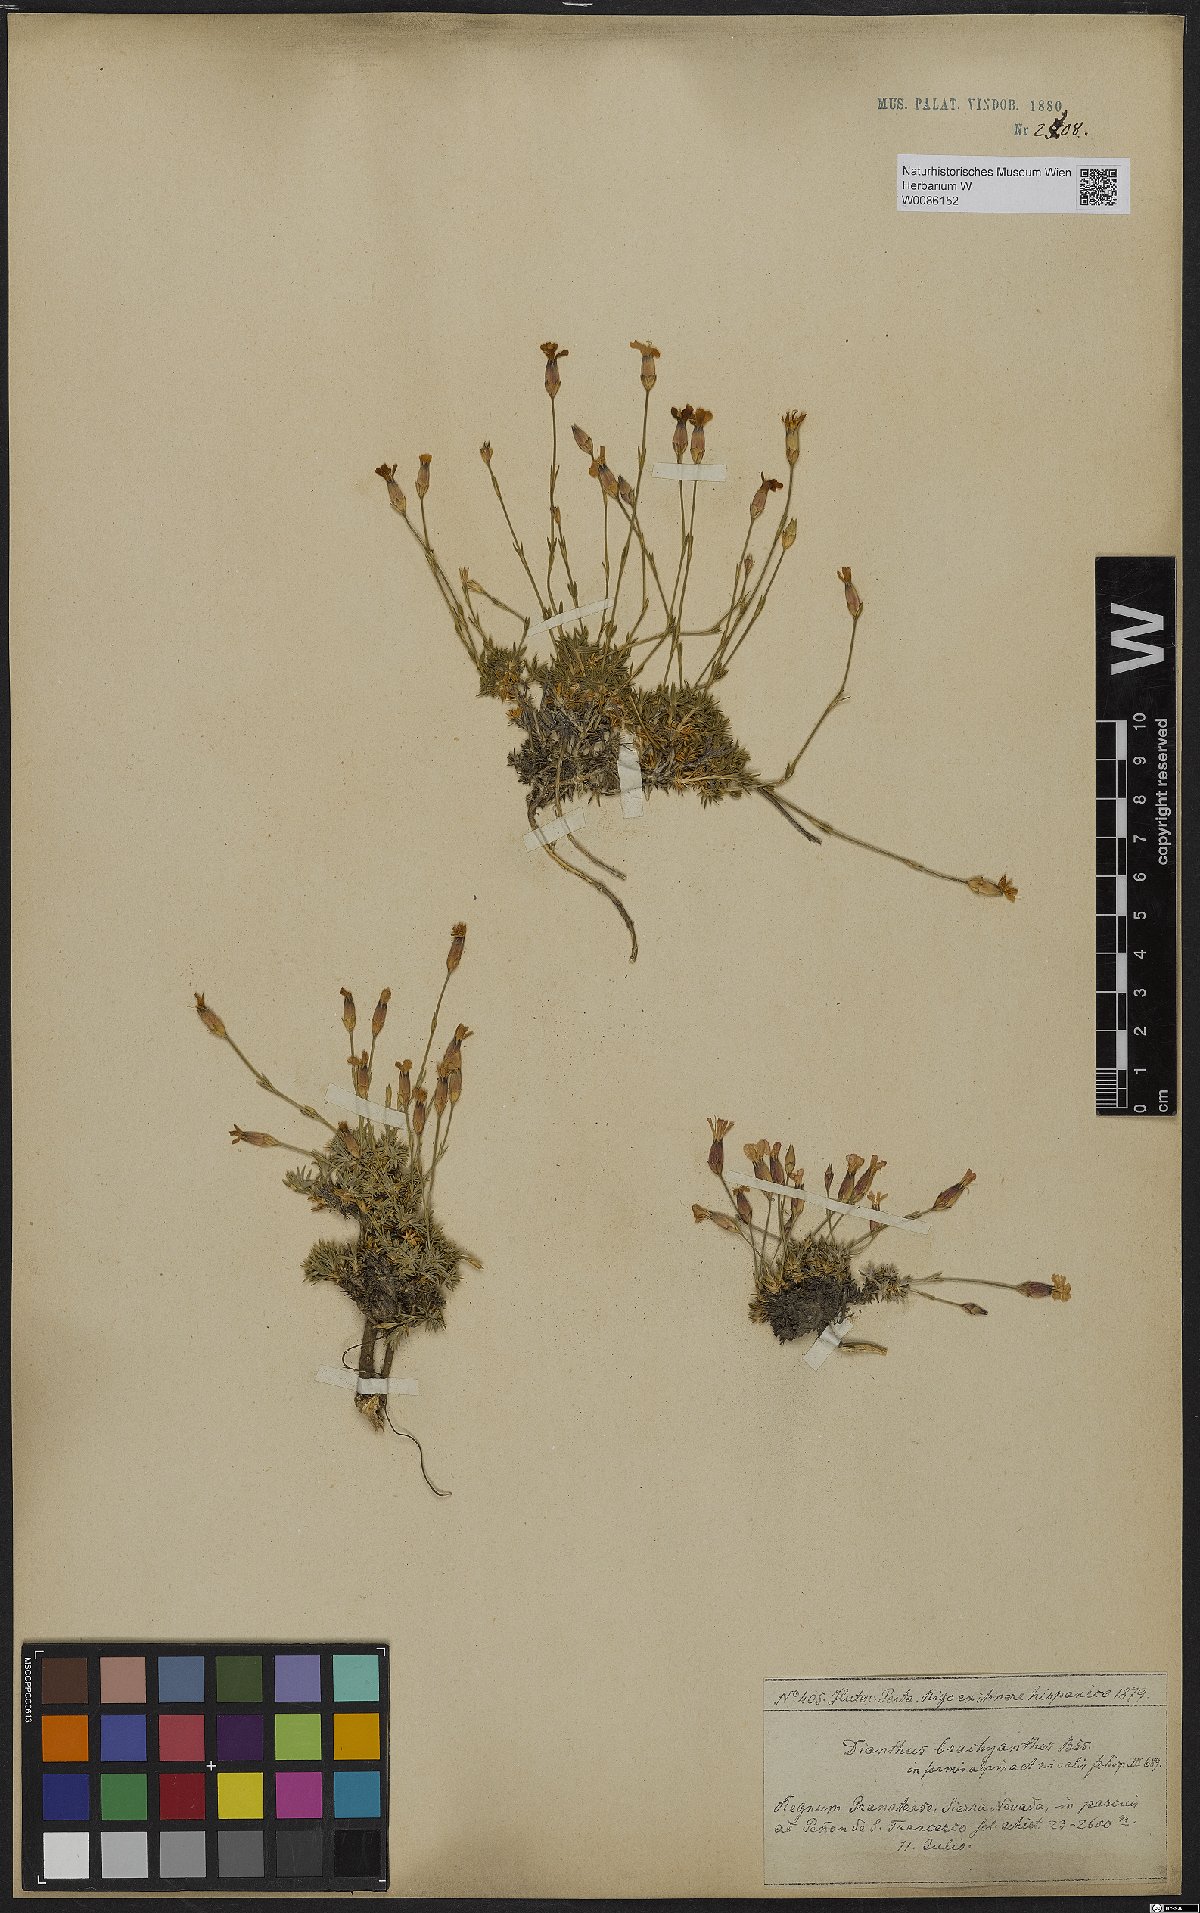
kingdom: Plantae
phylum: Tracheophyta
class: Magnoliopsida
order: Caryophyllales
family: Caryophyllaceae
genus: Dianthus
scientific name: Dianthus pungens
